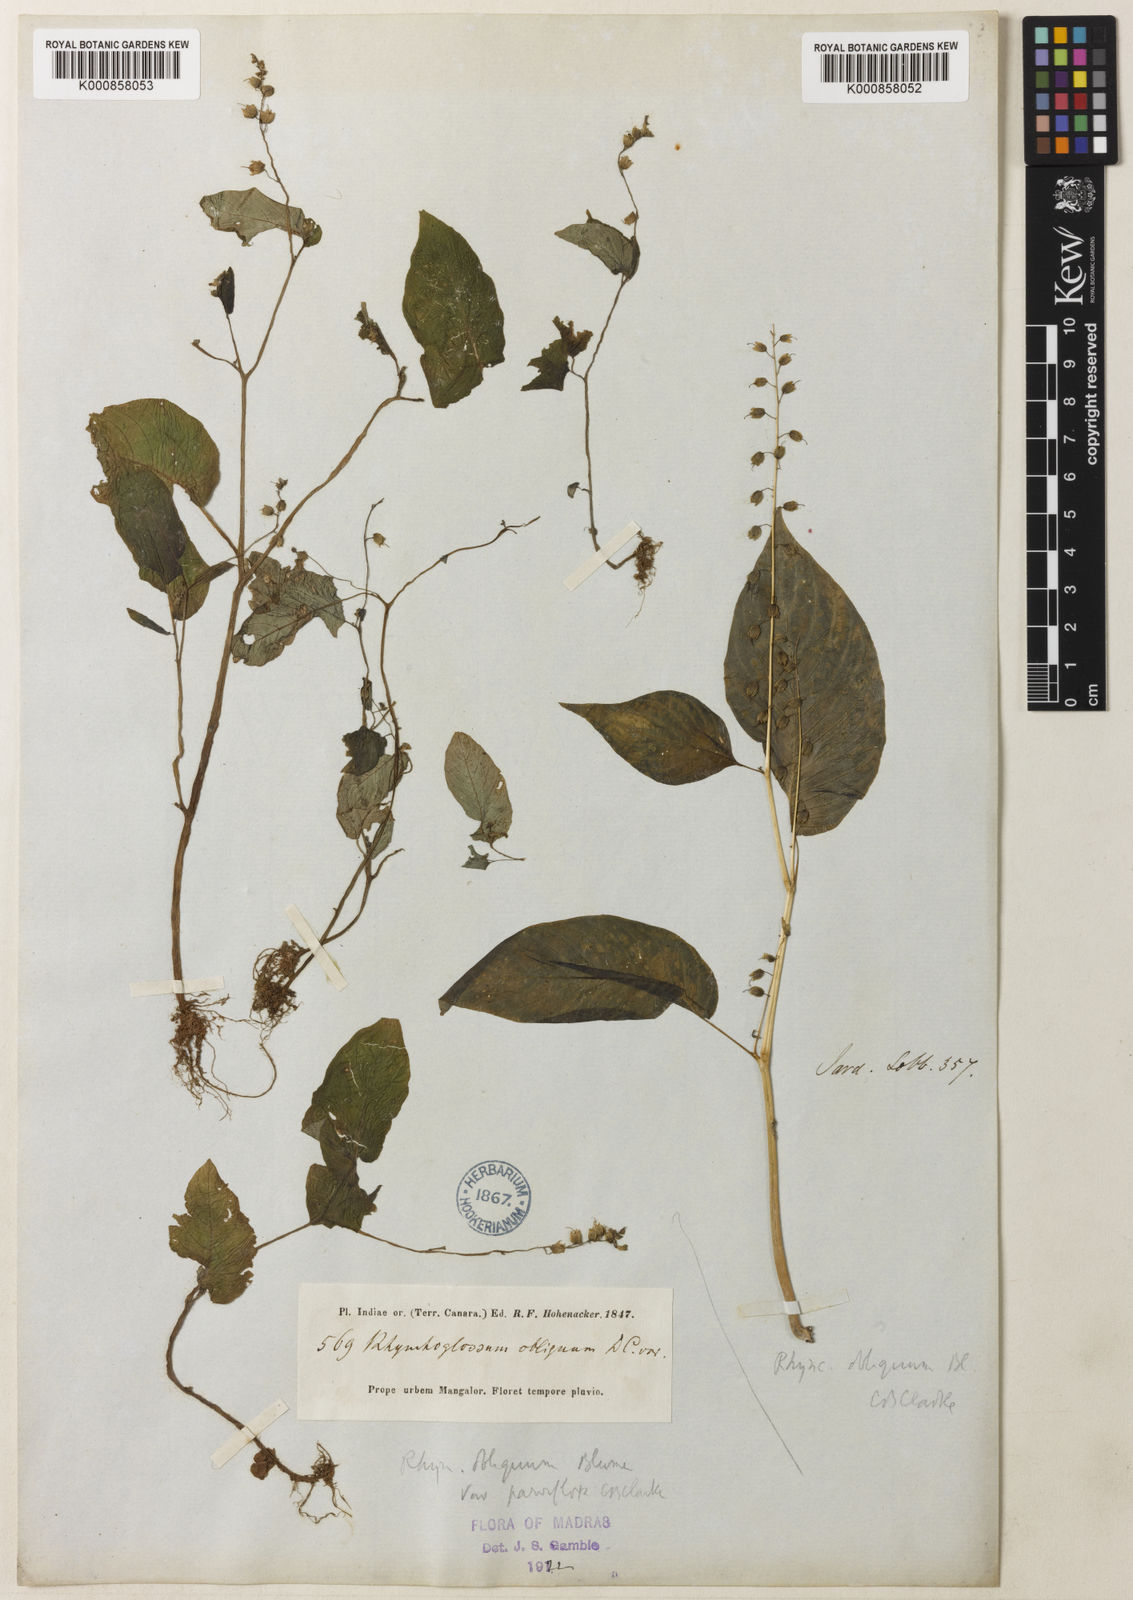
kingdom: Plantae
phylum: Tracheophyta
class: Magnoliopsida
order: Lamiales
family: Gesneriaceae
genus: Rhynchoglossum
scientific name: Rhynchoglossum obliquum
